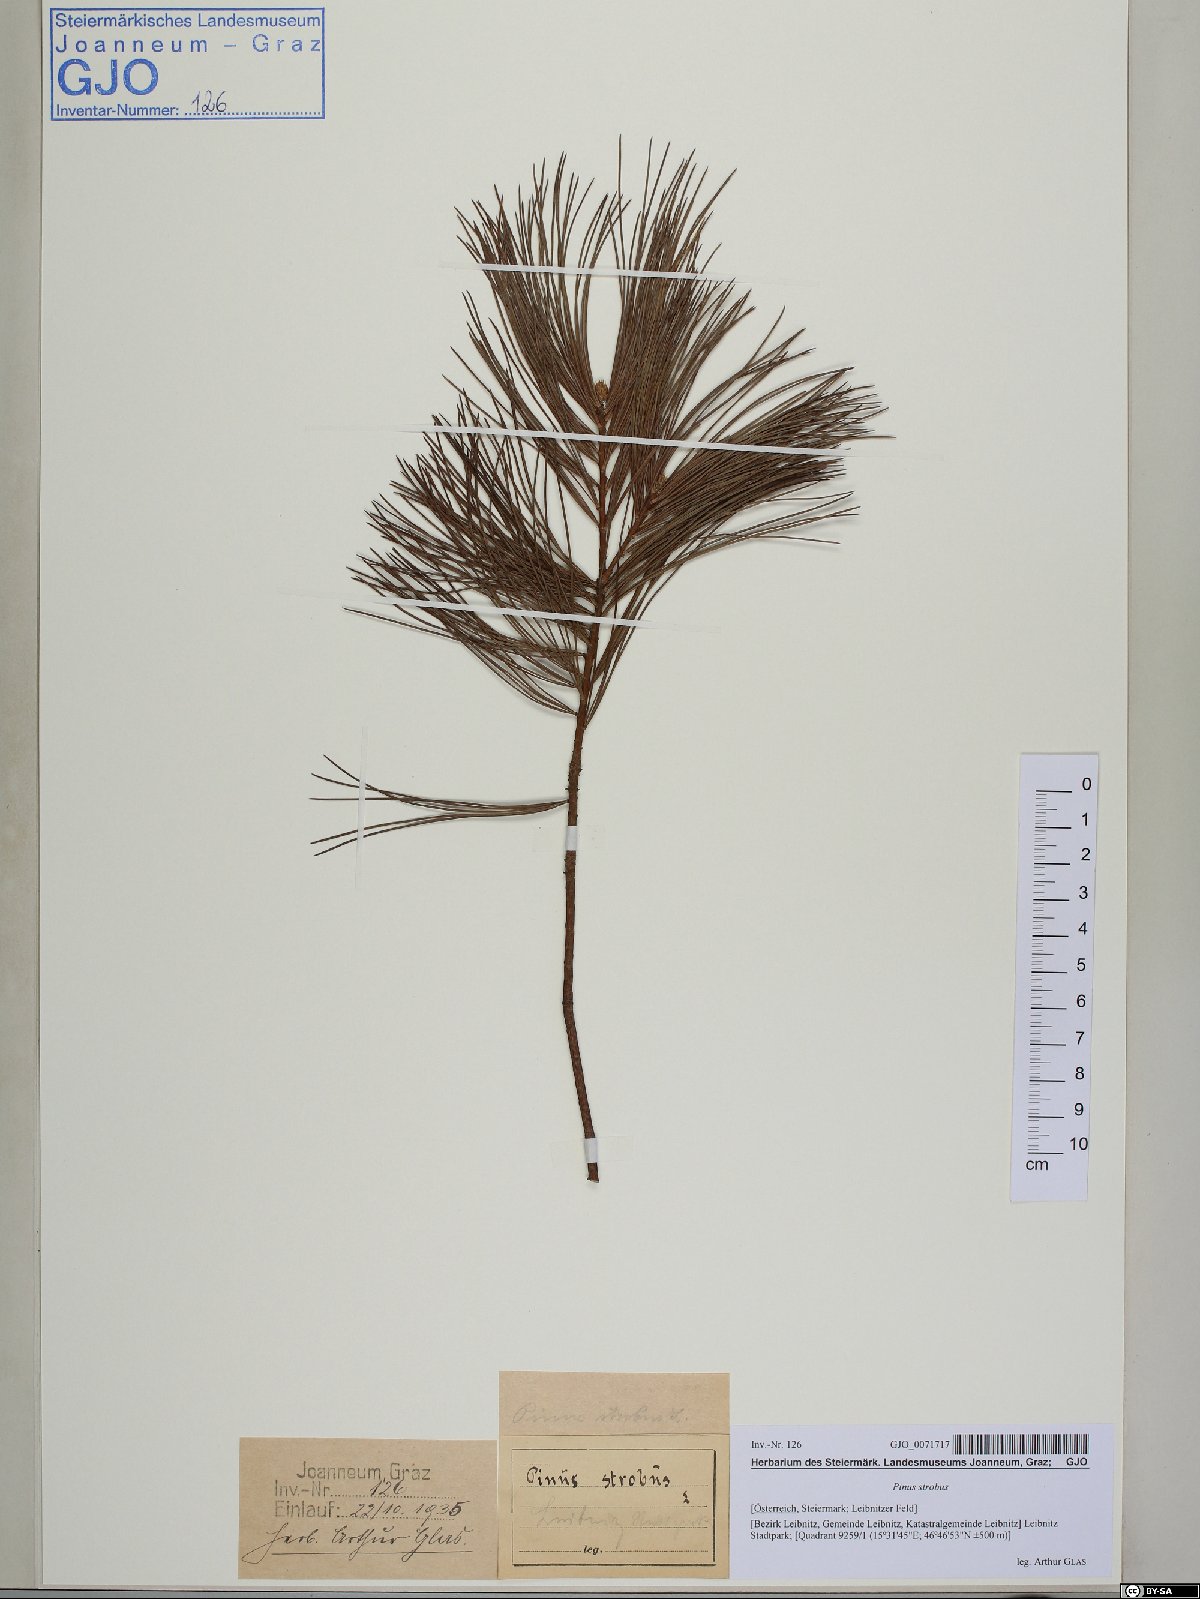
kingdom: Plantae
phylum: Tracheophyta
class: Pinopsida
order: Pinales
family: Pinaceae
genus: Pinus
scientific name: Pinus strobus
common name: Weymouth pine
